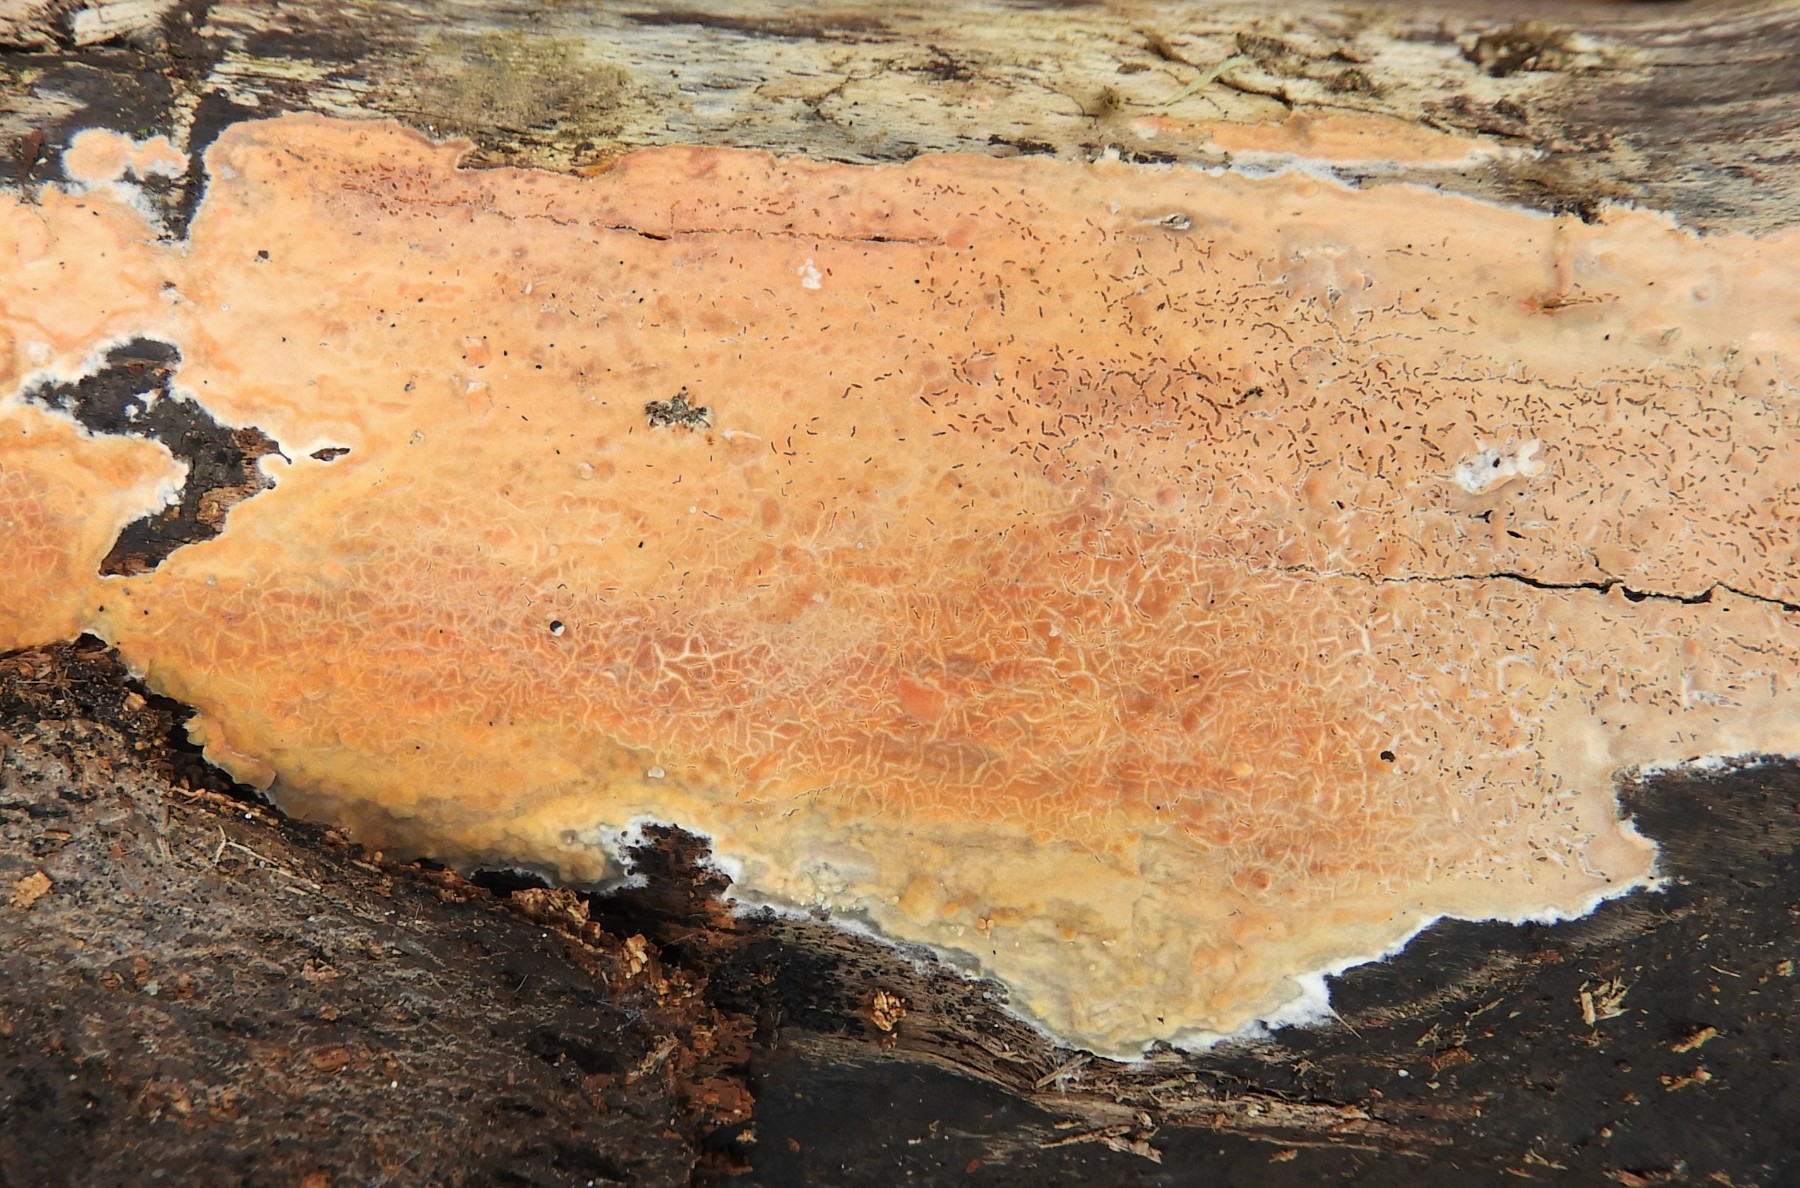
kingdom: Fungi
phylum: Basidiomycota
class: Agaricomycetes
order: Russulales
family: Peniophoraceae
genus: Peniophora
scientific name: Peniophora incarnata
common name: laksefarvet voksskind
